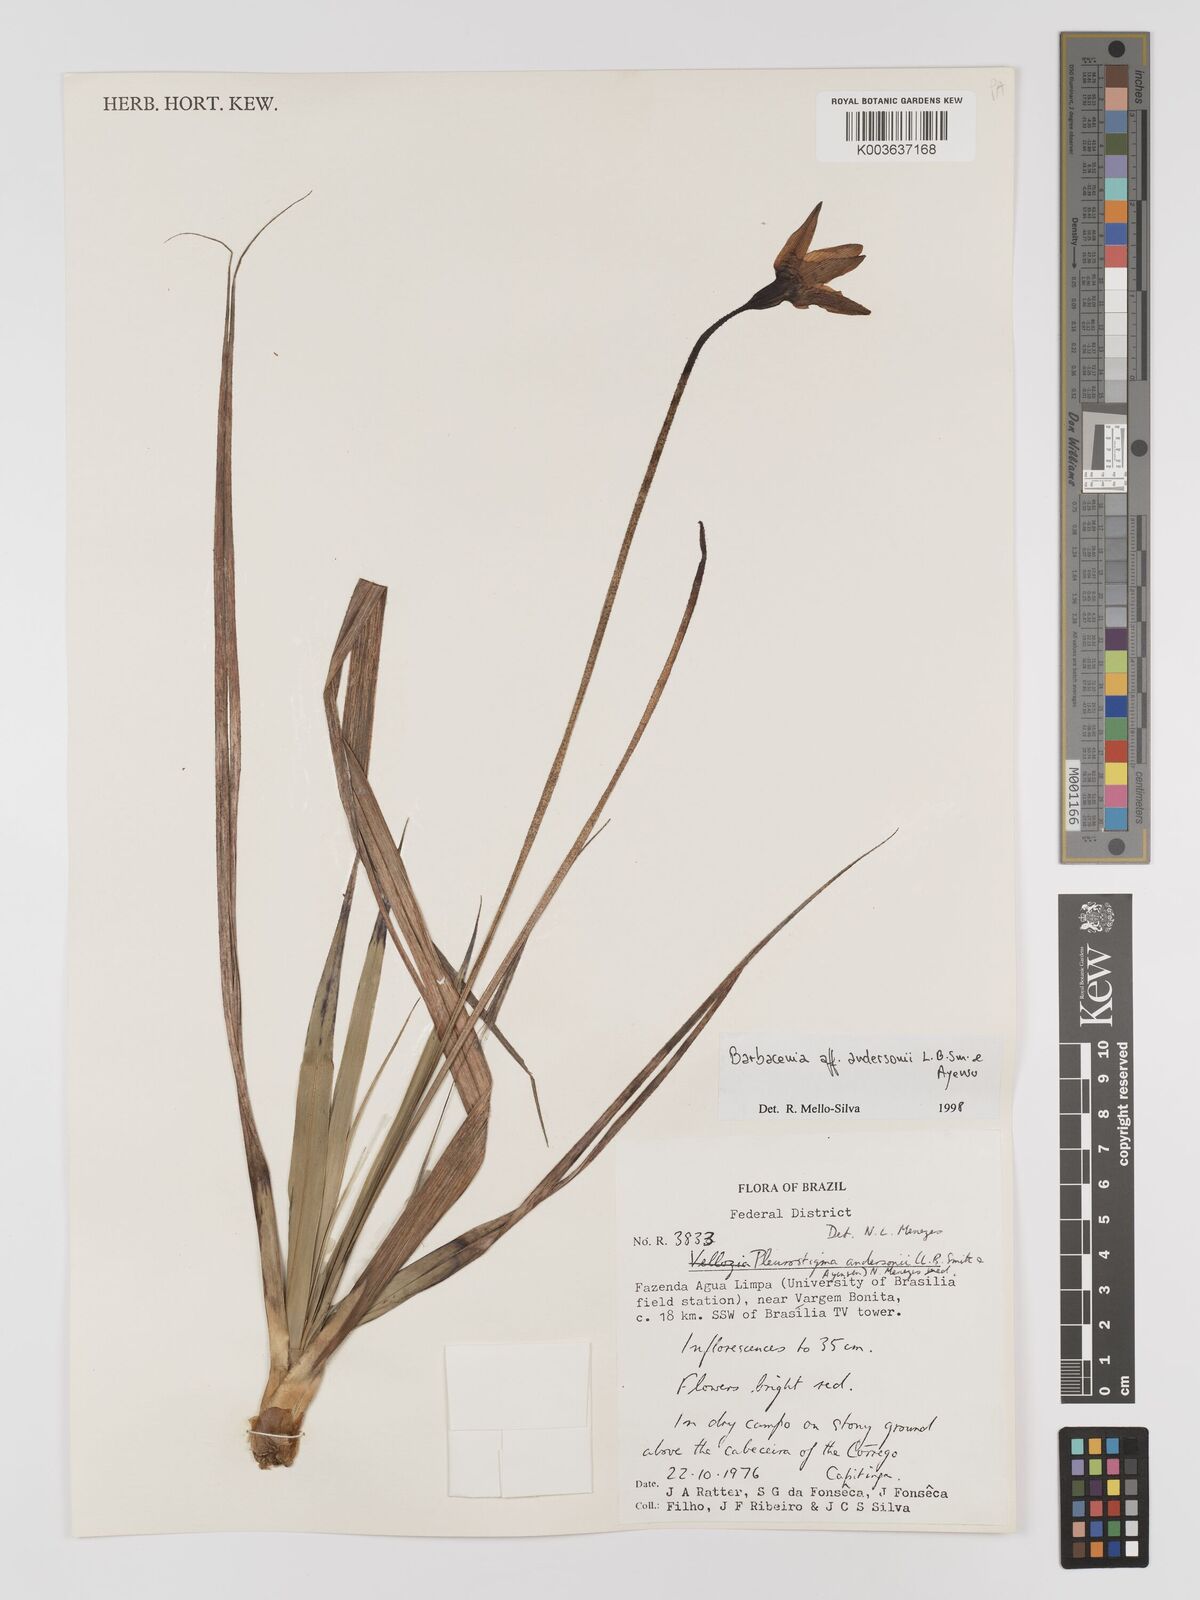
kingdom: Plantae
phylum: Tracheophyta
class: Liliopsida
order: Pandanales
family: Velloziaceae
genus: Barbacenia
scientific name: Barbacenia andersonii
